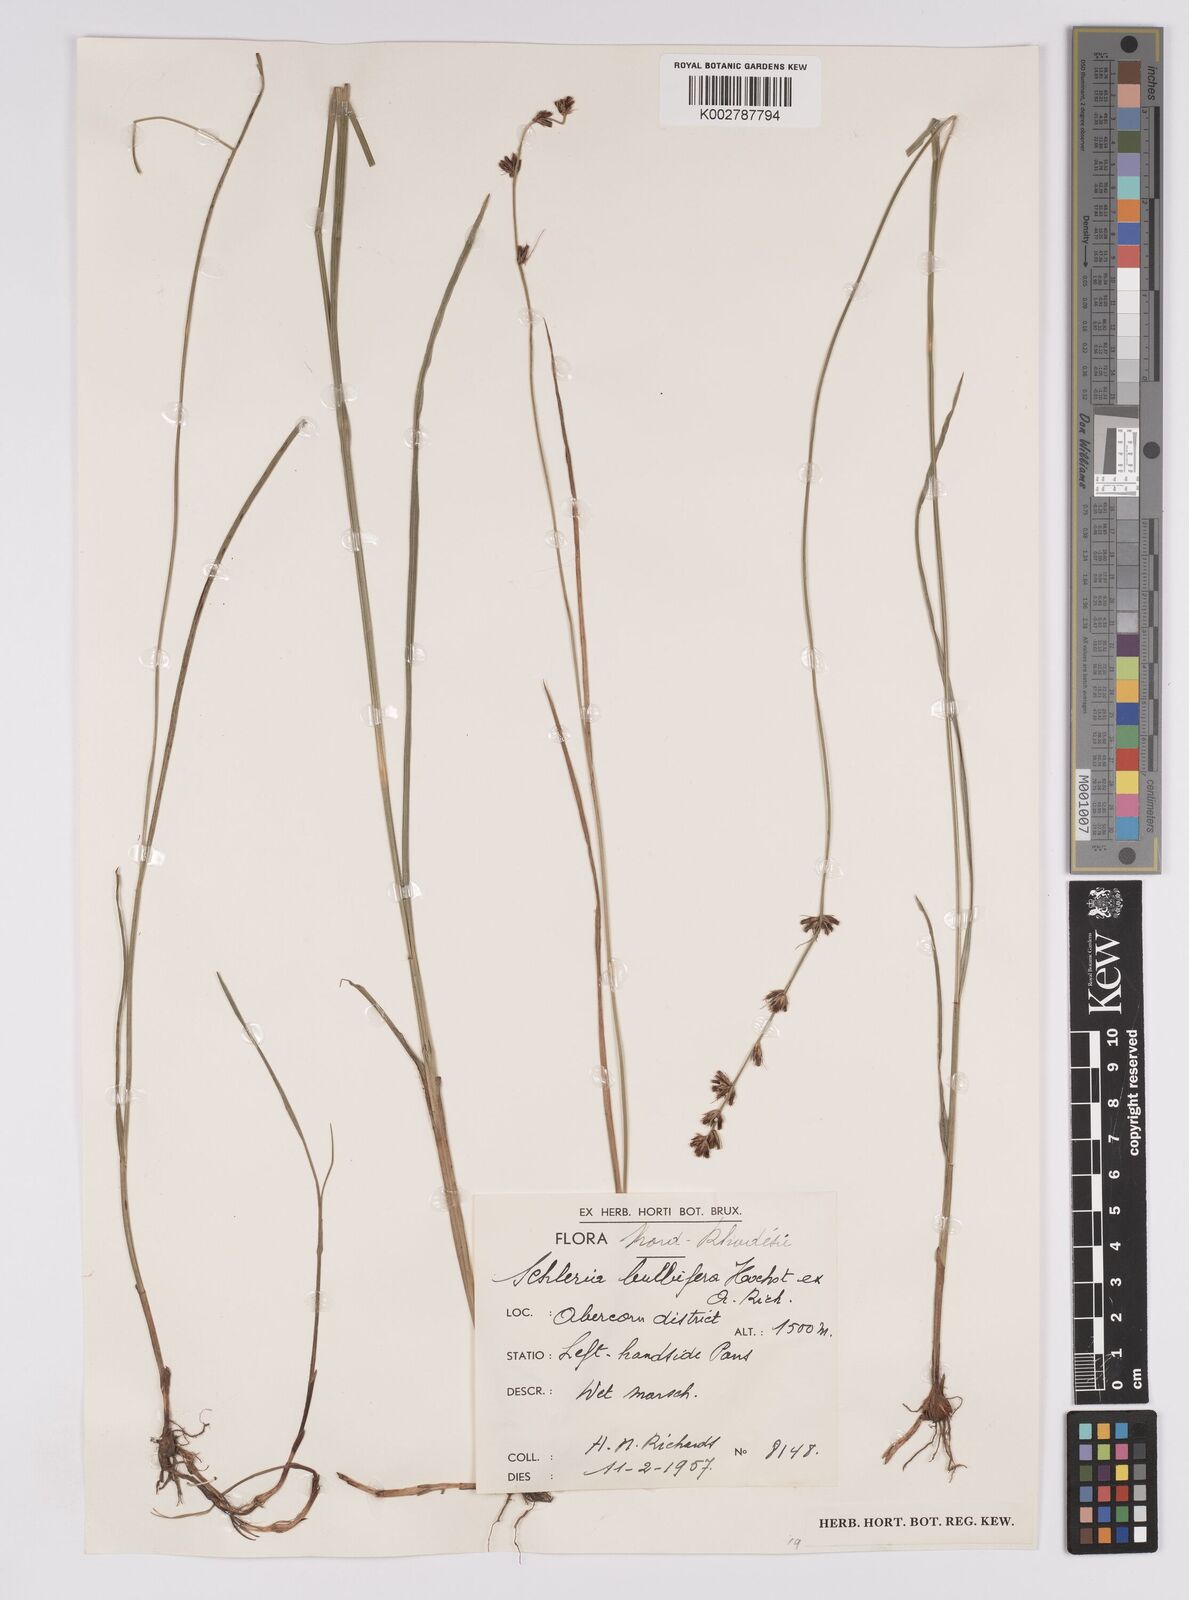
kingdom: Plantae
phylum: Tracheophyta
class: Liliopsida
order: Poales
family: Cyperaceae
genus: Scleria
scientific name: Scleria bulbifera
